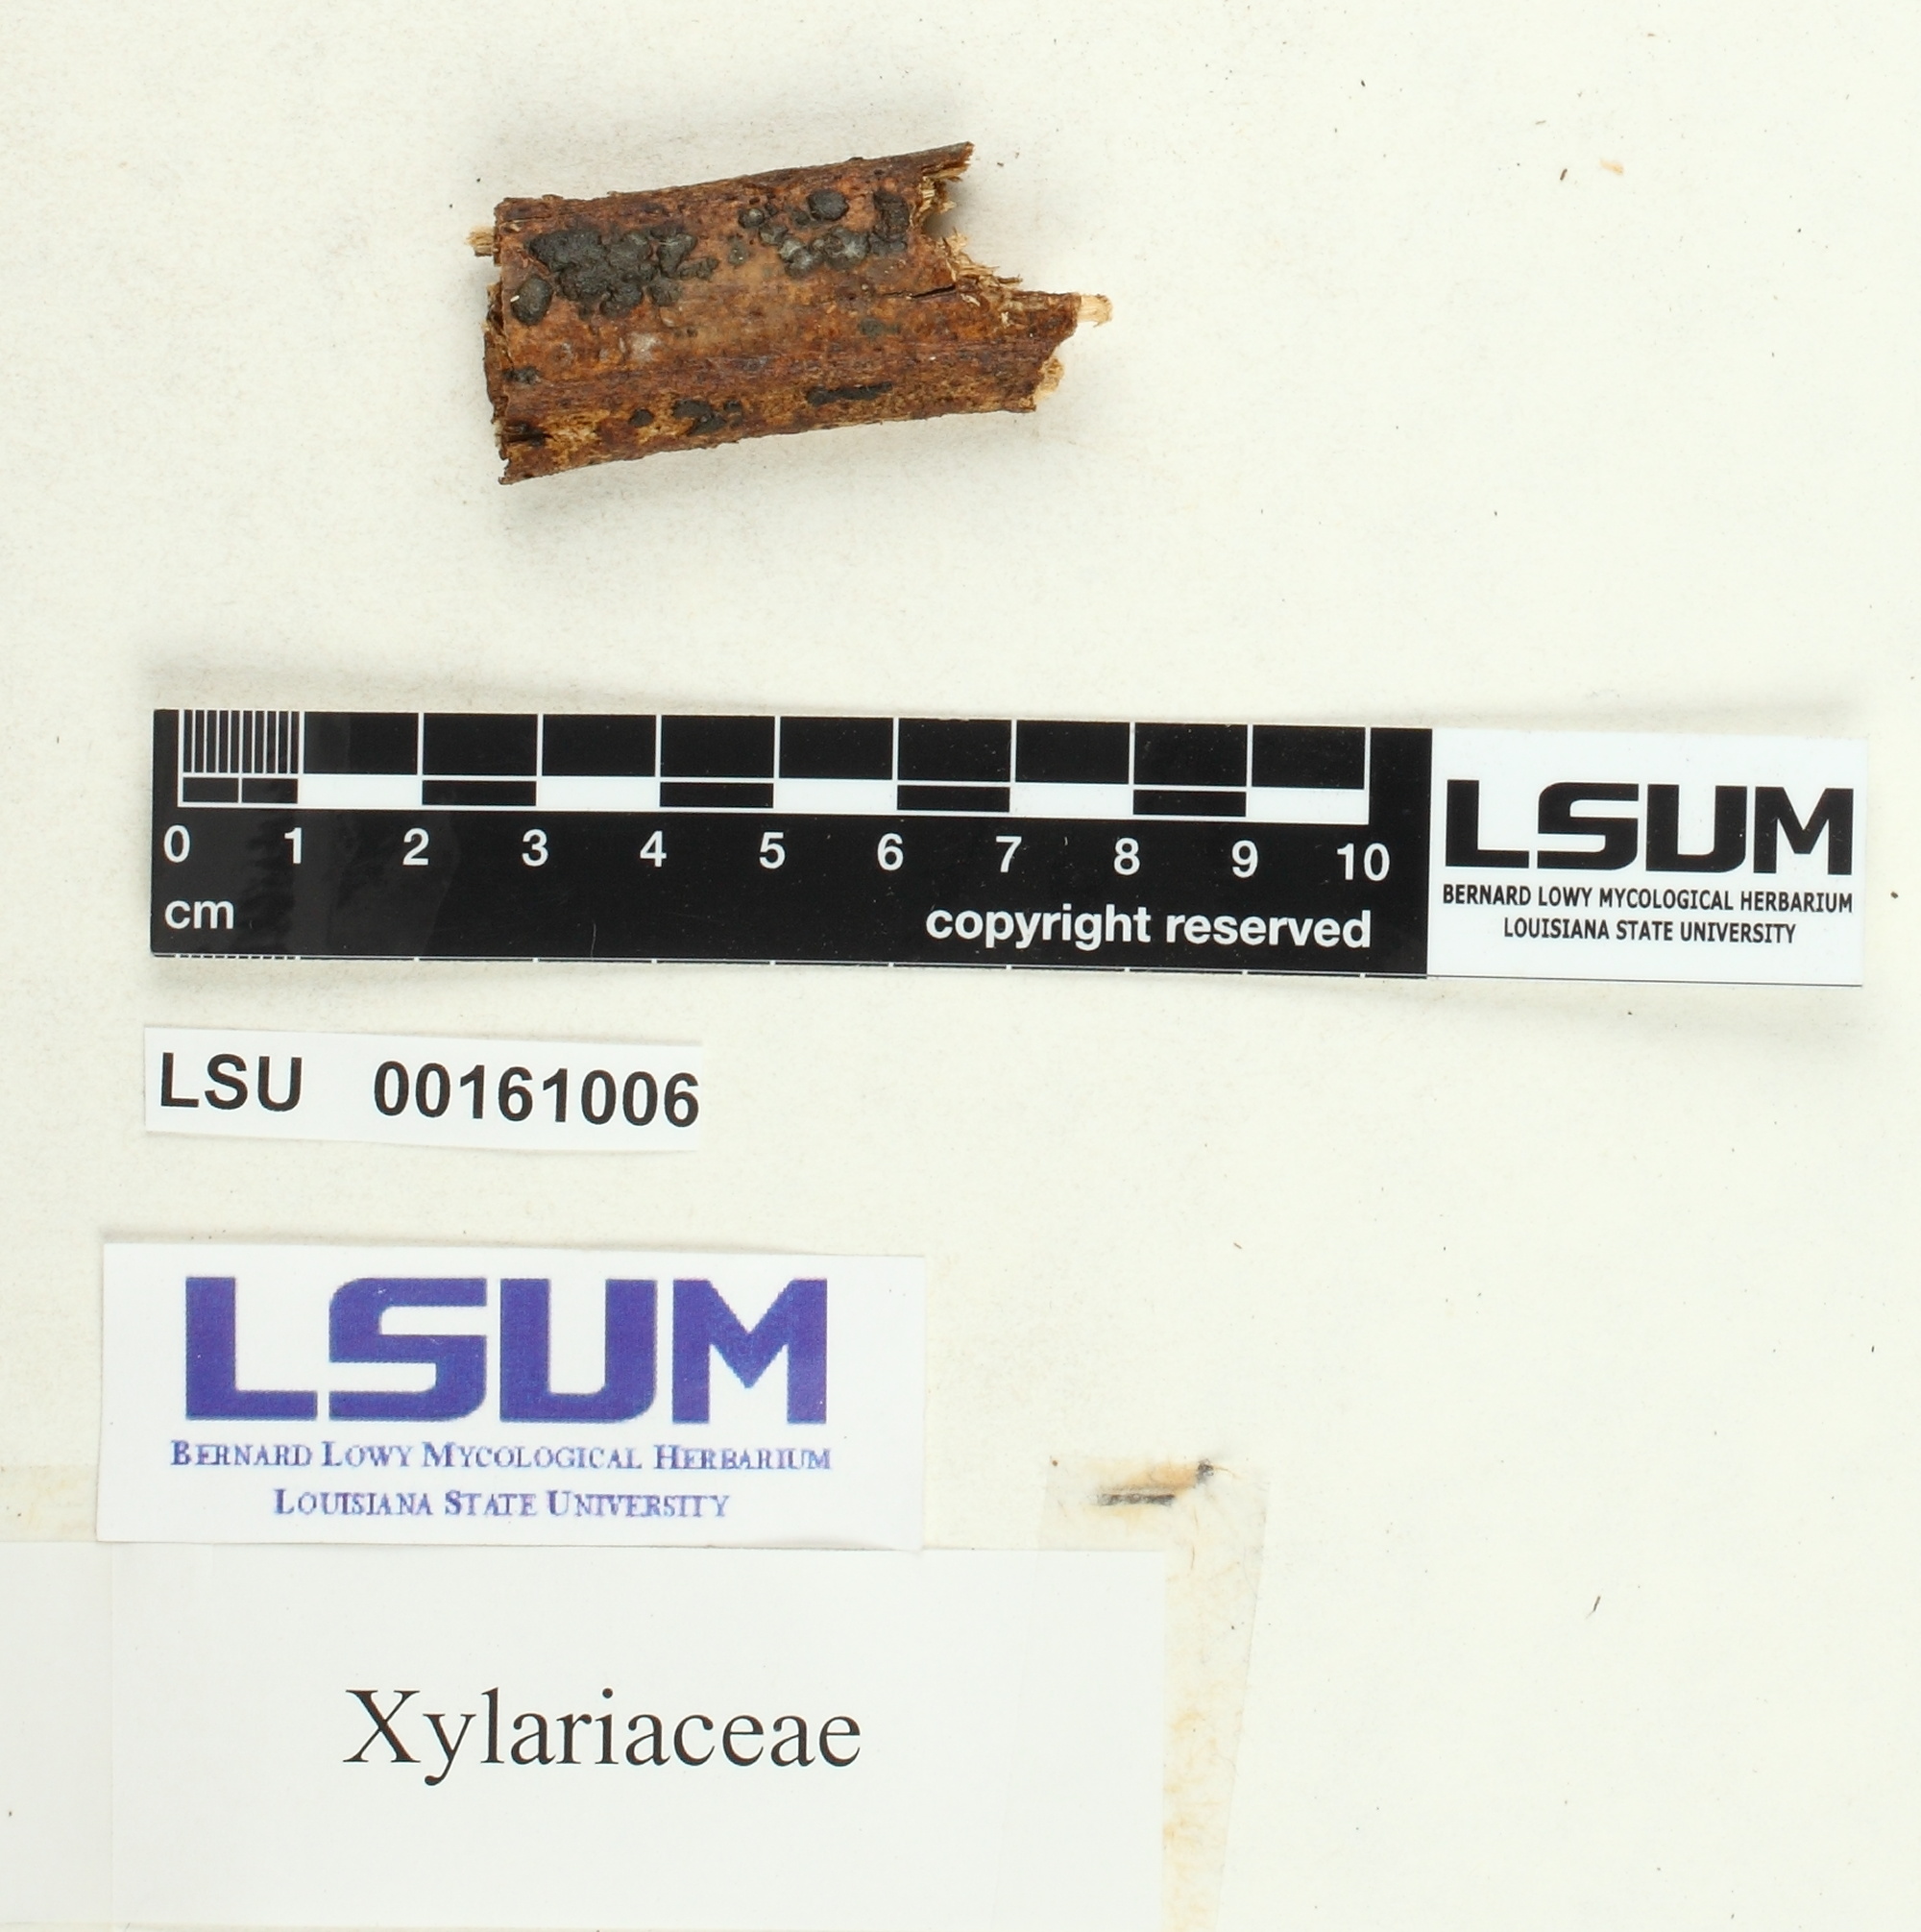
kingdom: Fungi
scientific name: Fungi
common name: Fungi
